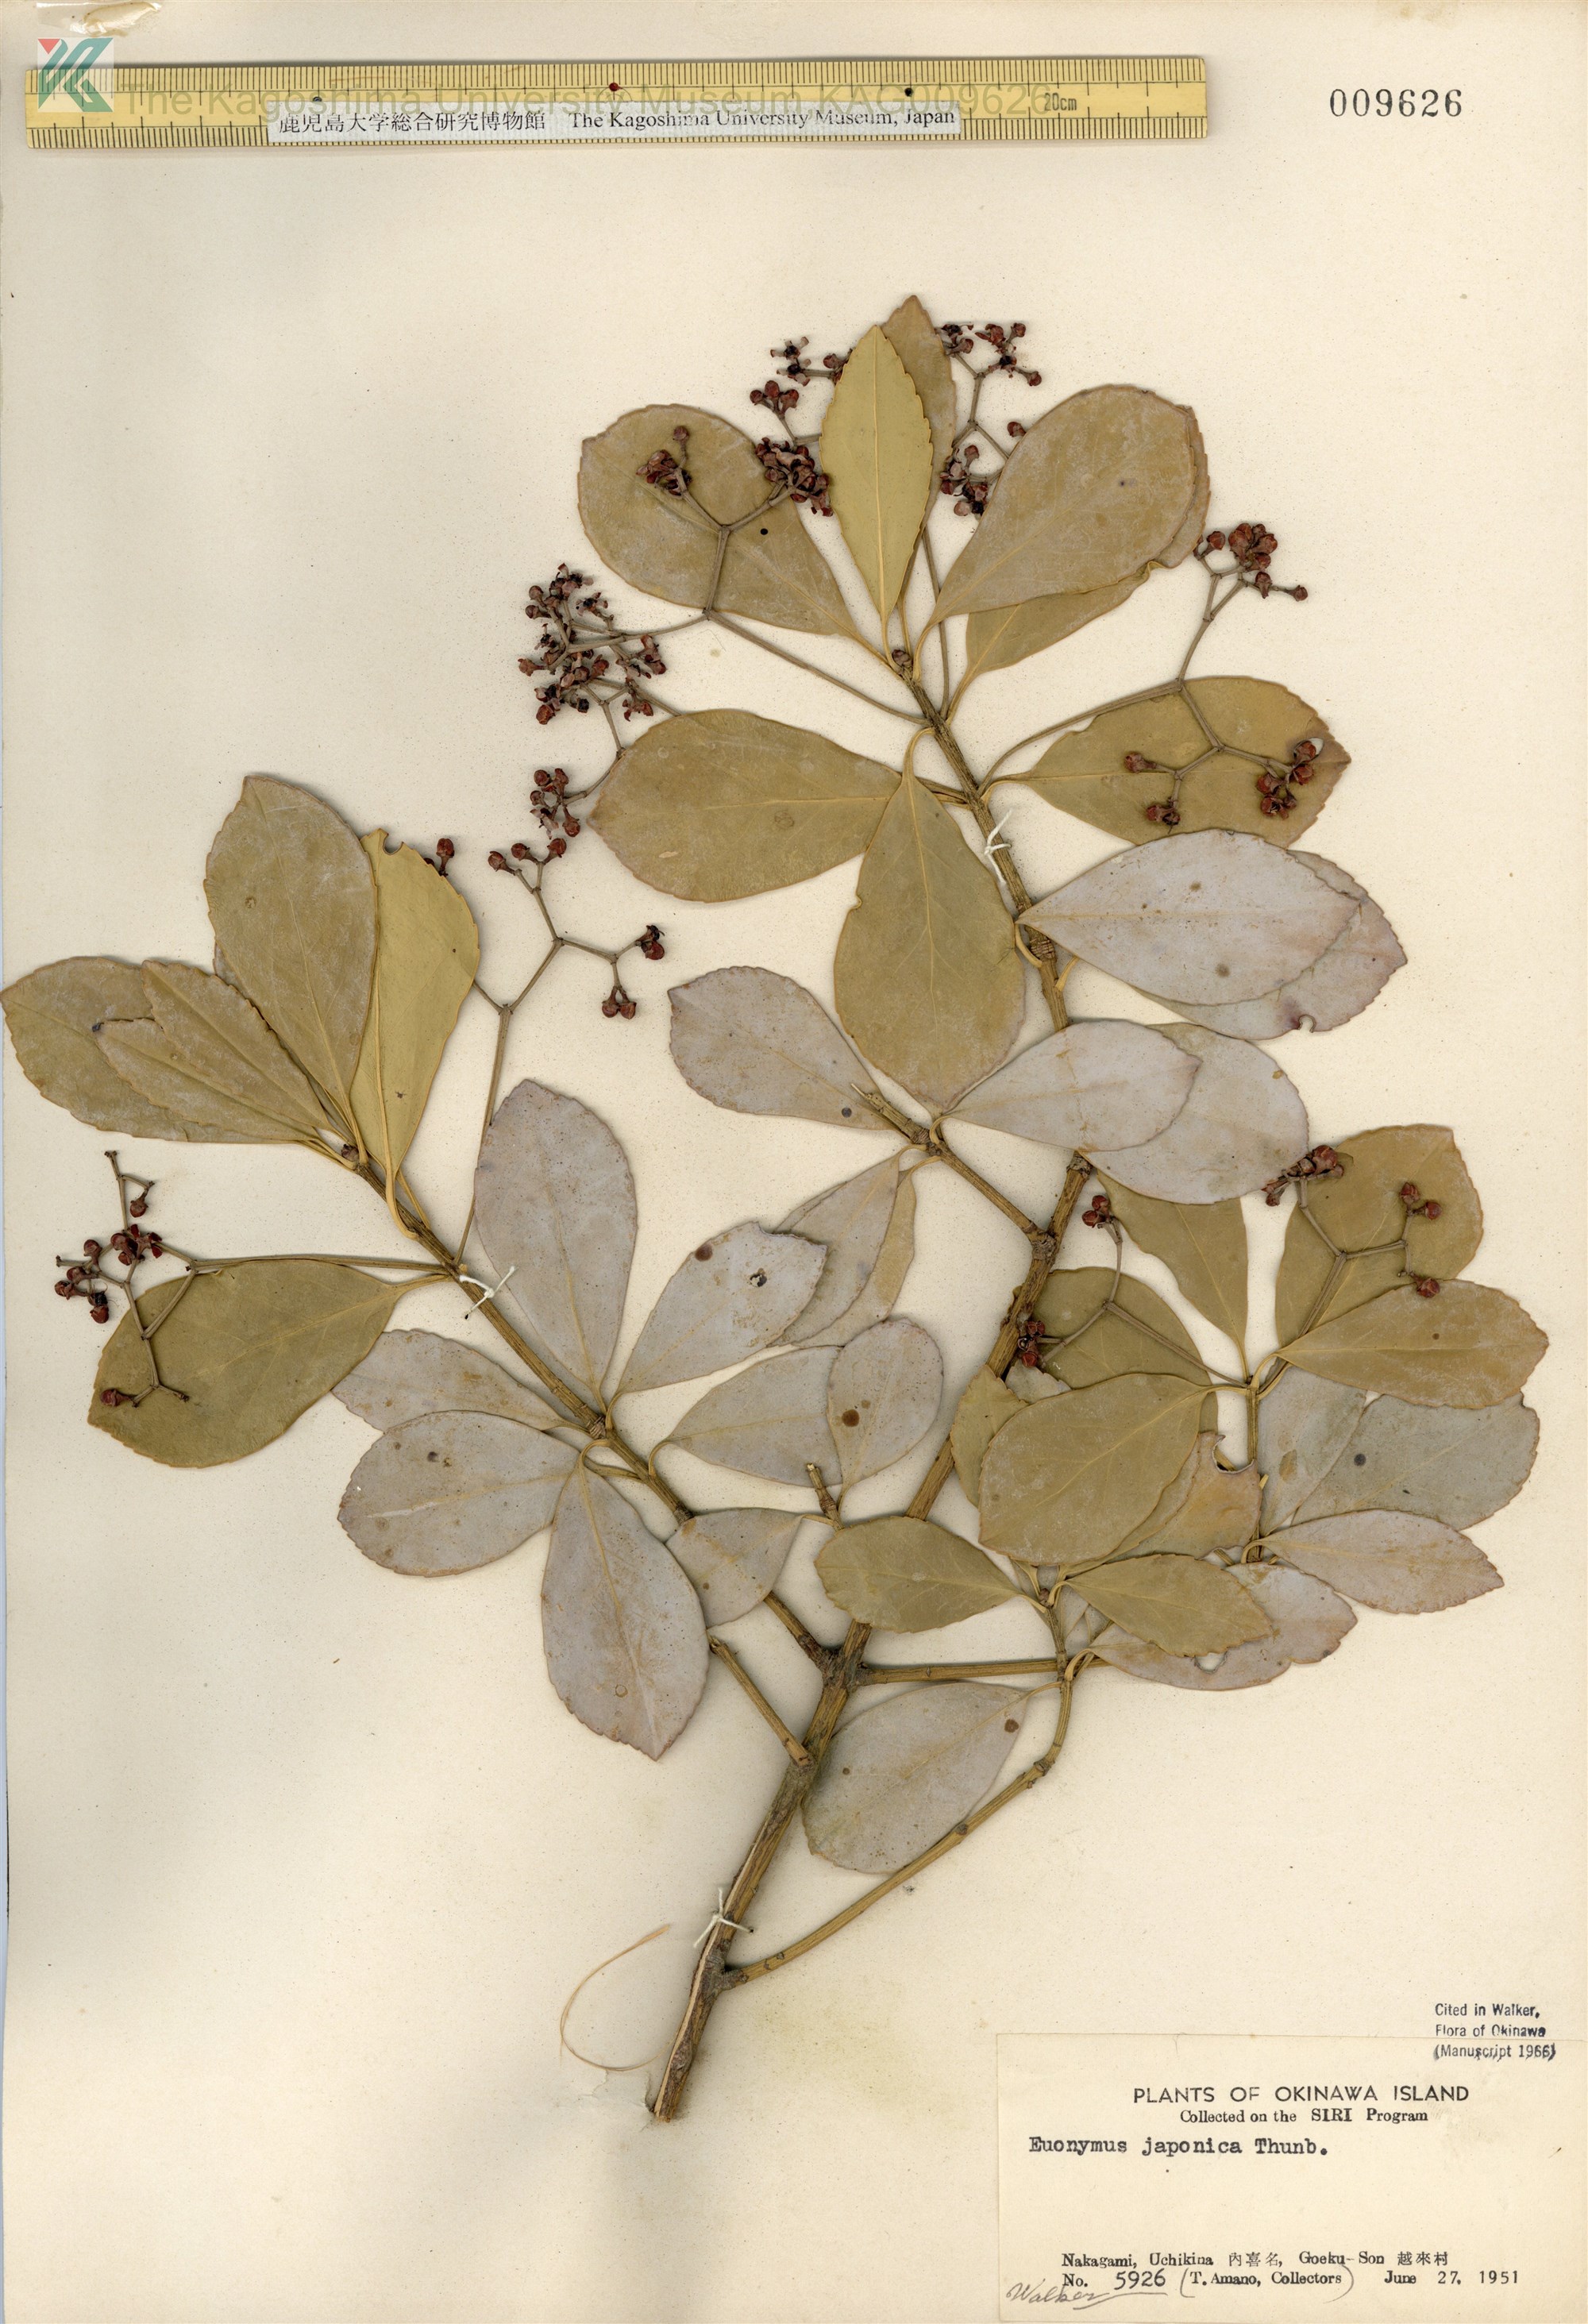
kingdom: Plantae
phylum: Tracheophyta
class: Magnoliopsida
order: Celastrales
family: Celastraceae
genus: Euonymus
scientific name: Euonymus japonicus
